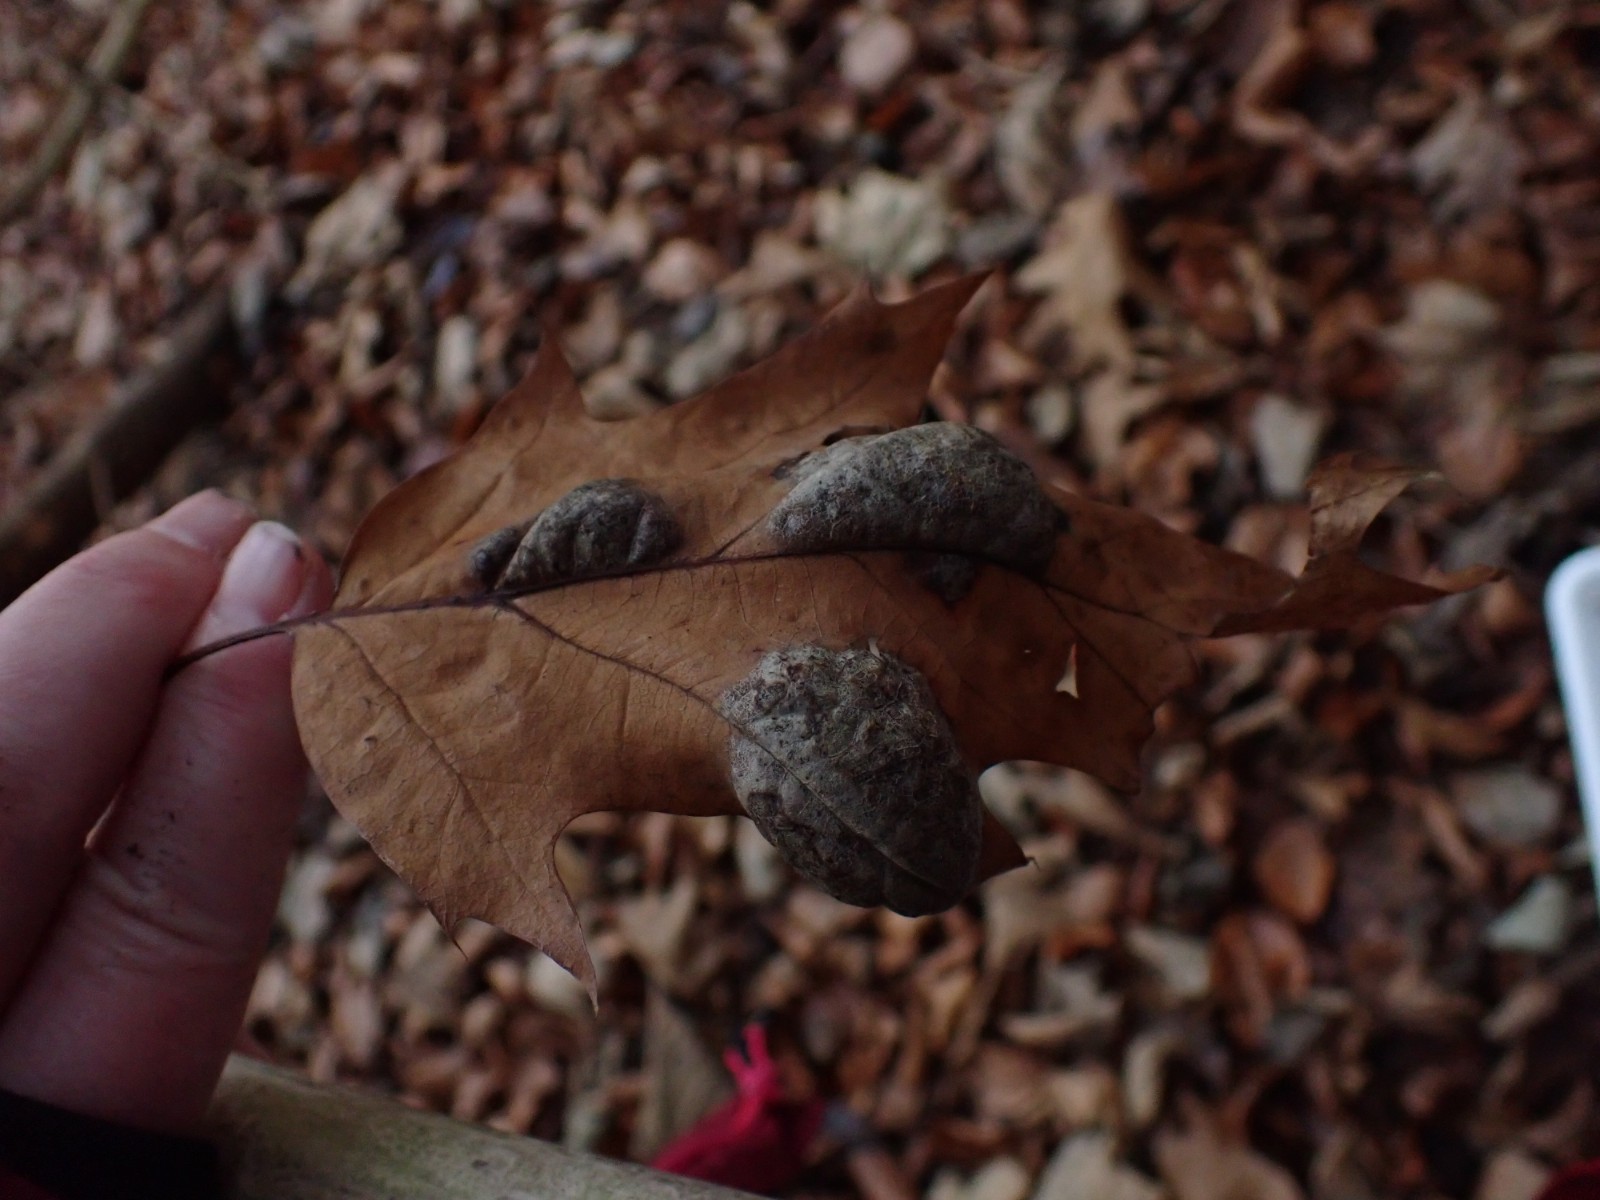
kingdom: Fungi
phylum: Ascomycota
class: Taphrinomycetes
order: Taphrinales
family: Taphrinaceae
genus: Taphrina
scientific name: Taphrina caerulescens
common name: Oak leaf blister
